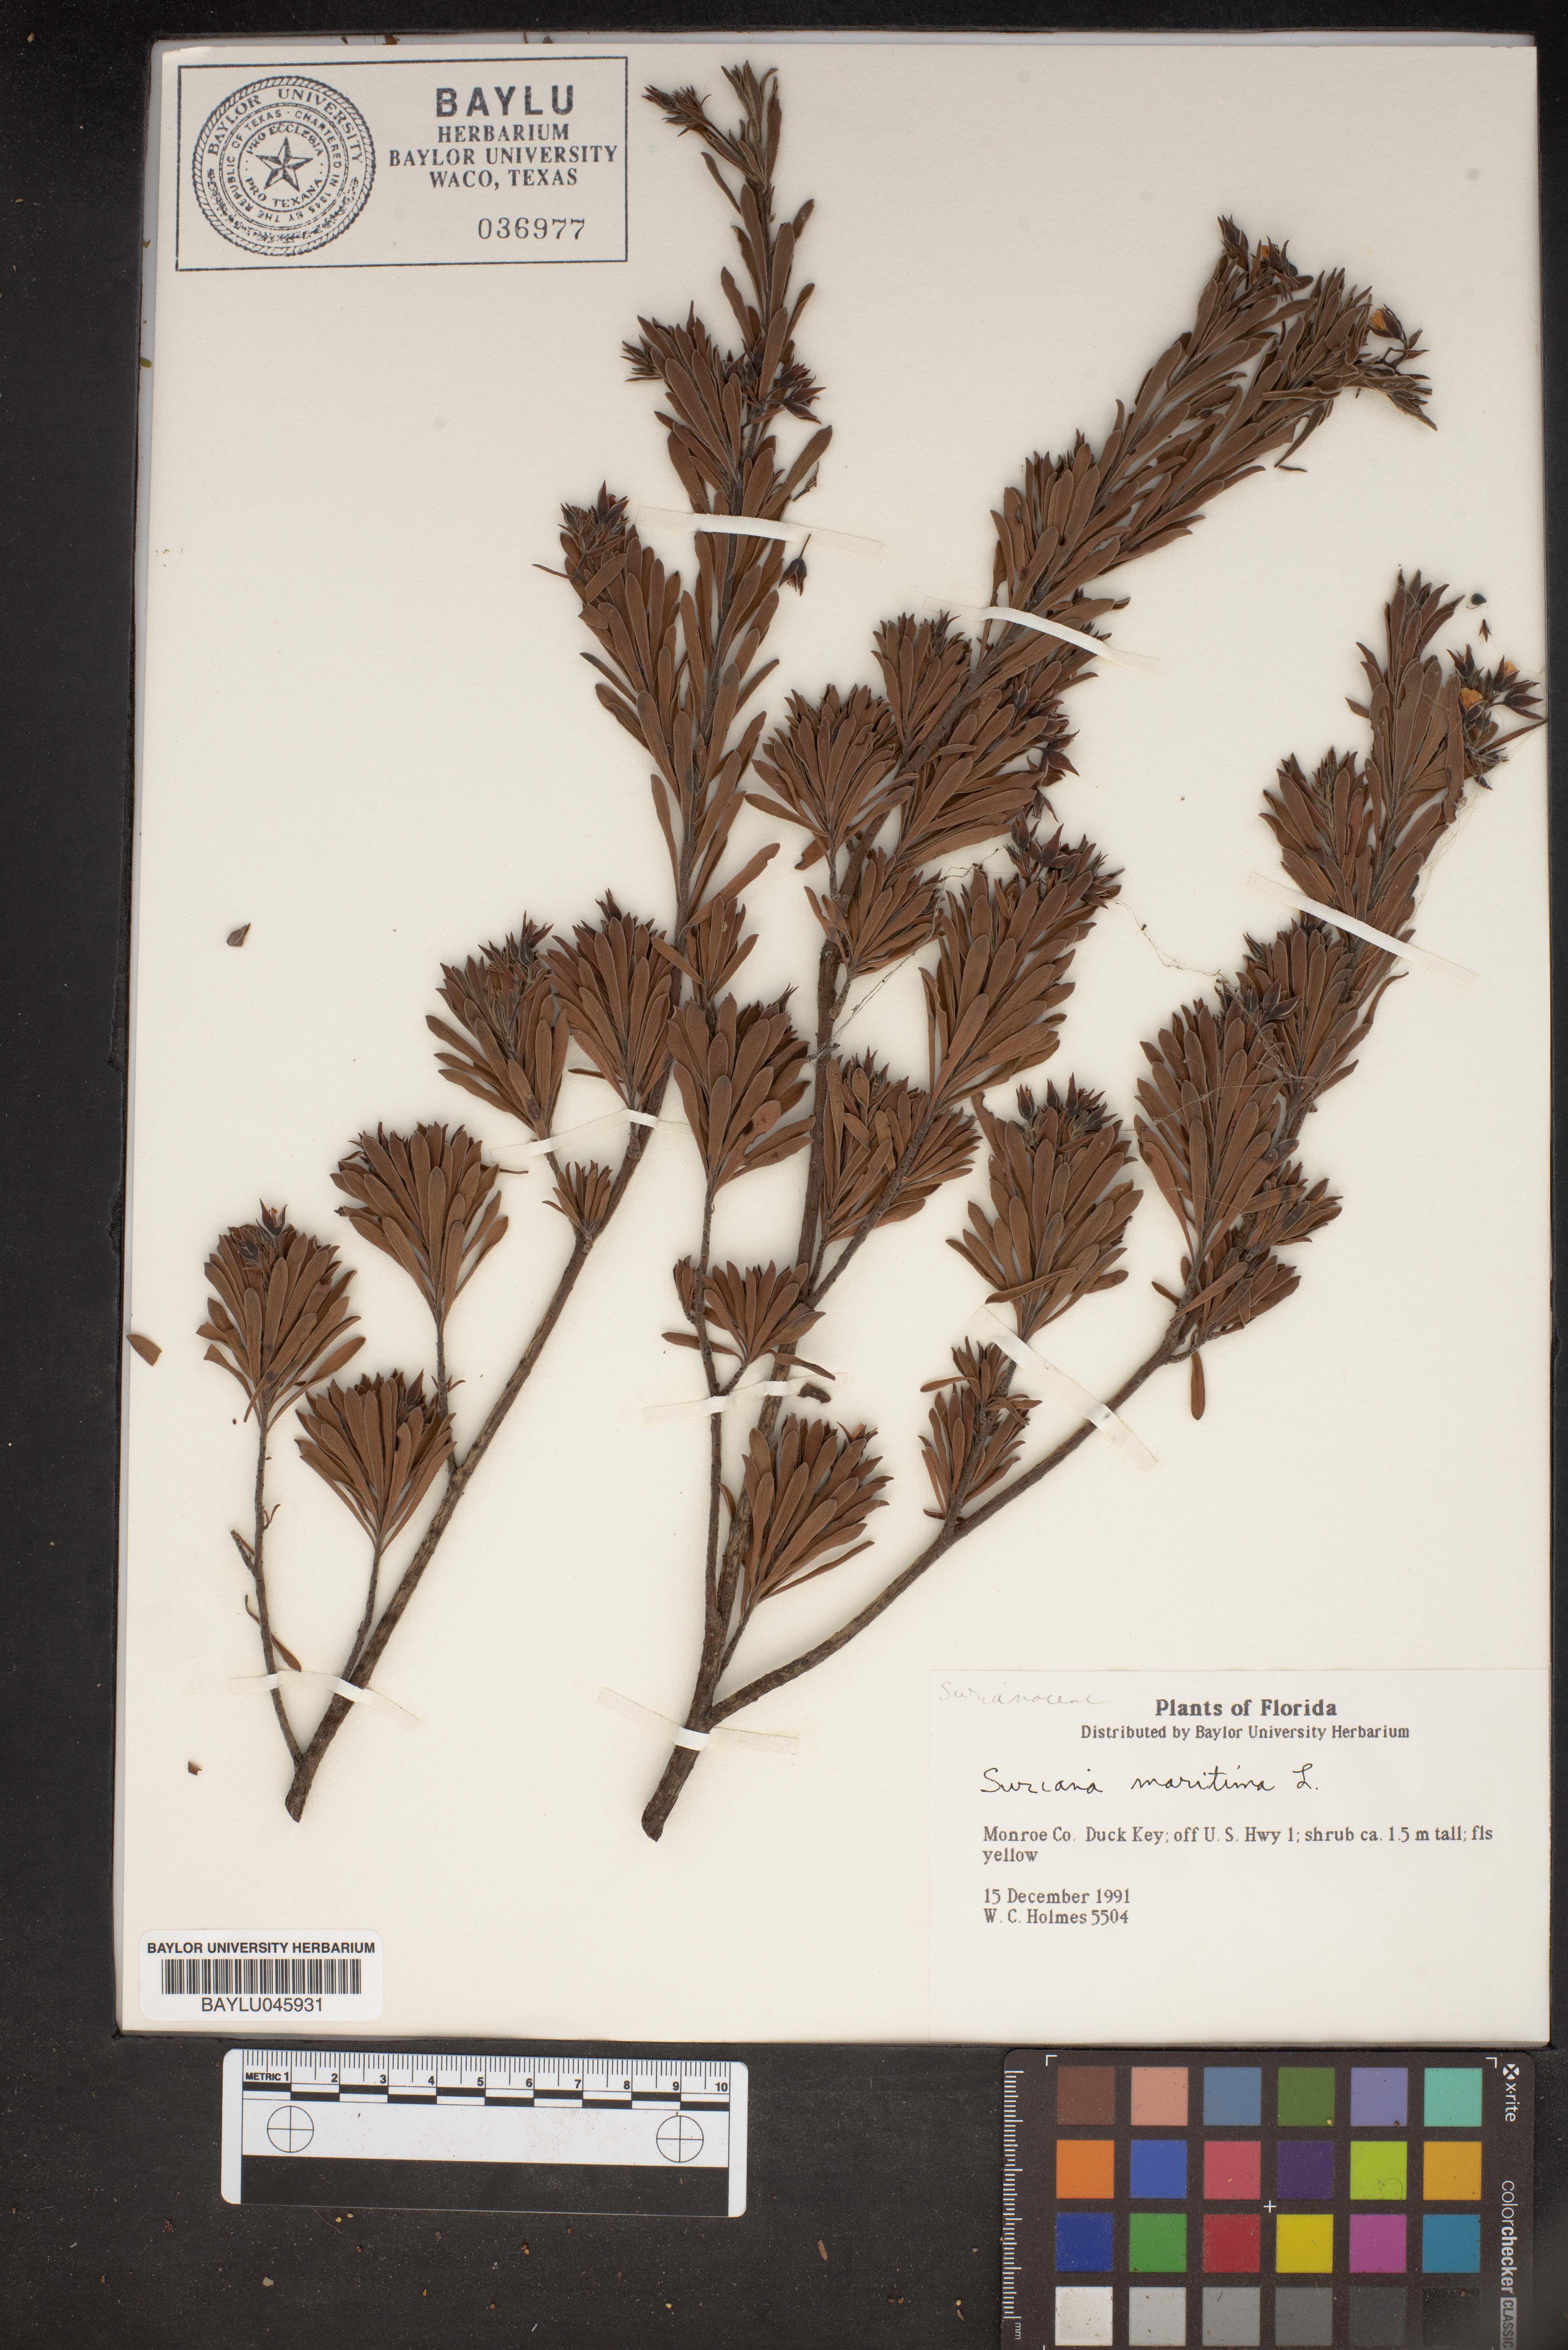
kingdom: Plantae
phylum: Tracheophyta
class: Magnoliopsida
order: Fabales
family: Surianaceae
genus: Suriana
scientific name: Suriana maritima
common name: Bay-cedar
